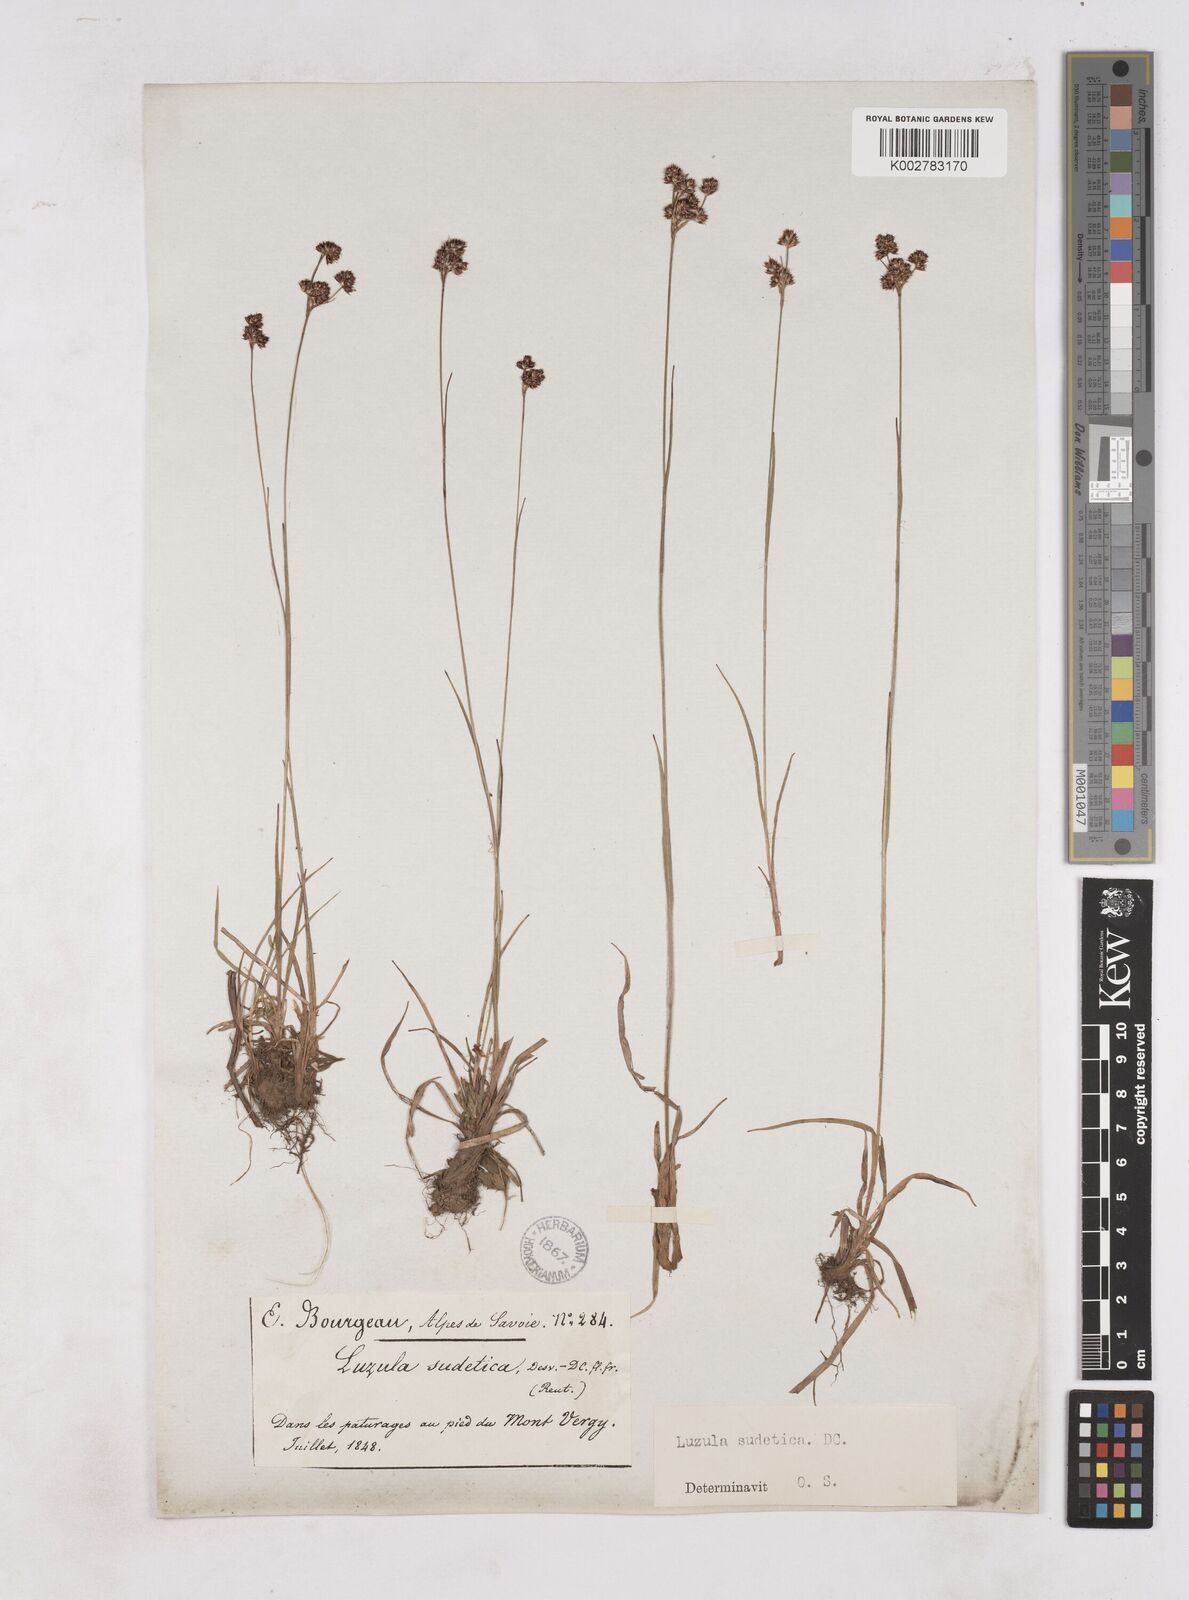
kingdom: Plantae
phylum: Tracheophyta
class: Liliopsida
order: Poales
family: Juncaceae
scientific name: Juncaceae
